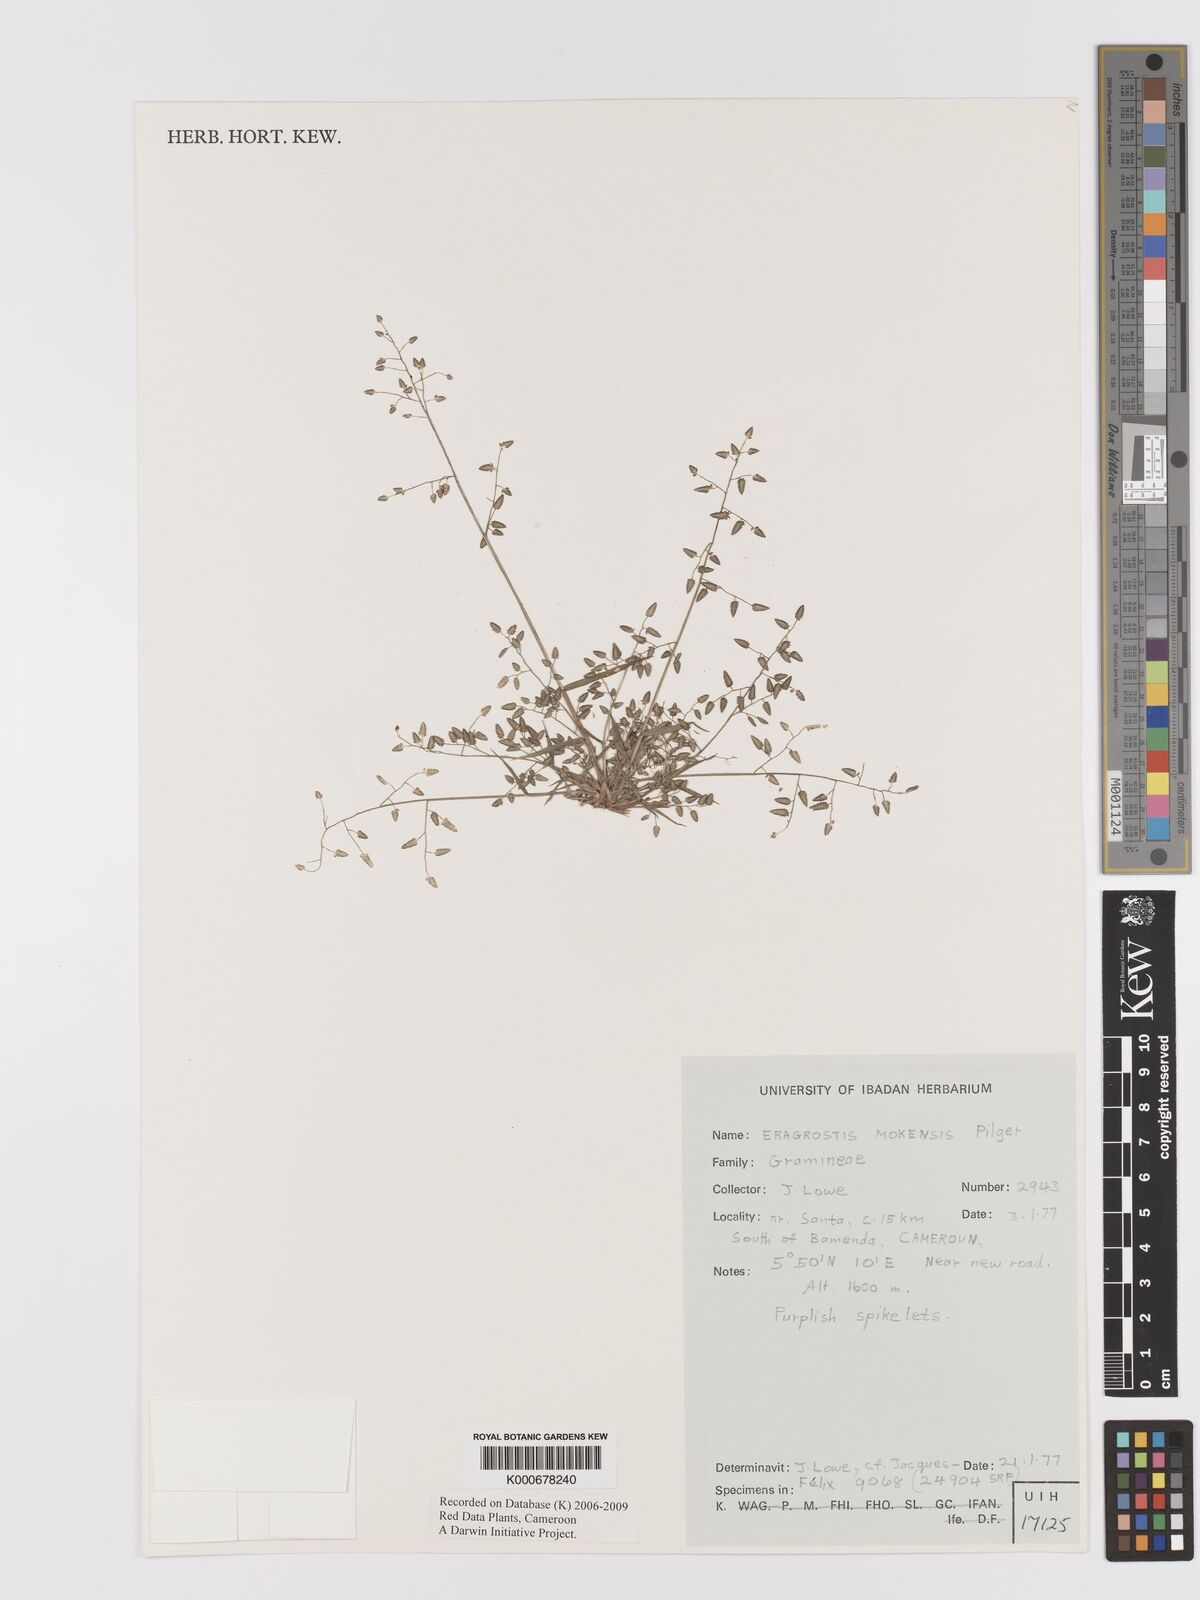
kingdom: Plantae
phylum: Tracheophyta
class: Liliopsida
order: Poales
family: Poaceae
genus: Eragrostis
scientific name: Eragrostis mokensis
